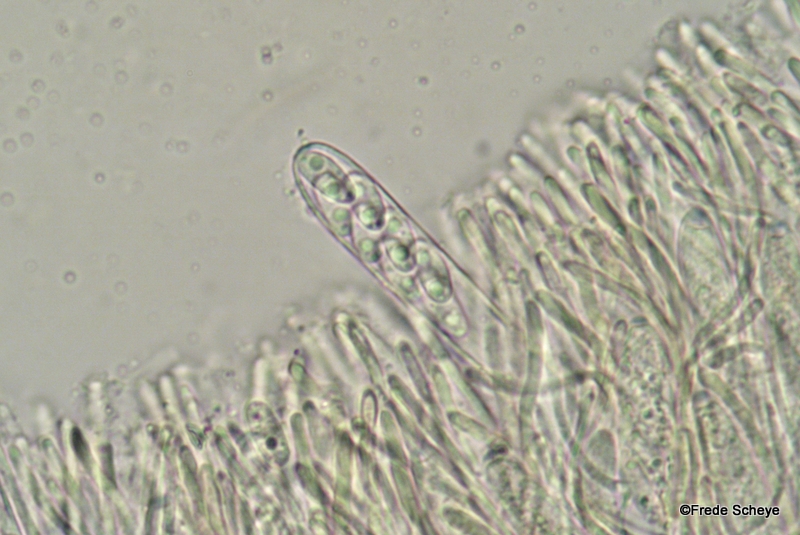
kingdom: Fungi
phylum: Ascomycota
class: Leotiomycetes
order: Helotiales
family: Pezizellaceae
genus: Calycina
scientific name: Calycina citrina
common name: almindelig gulskive
